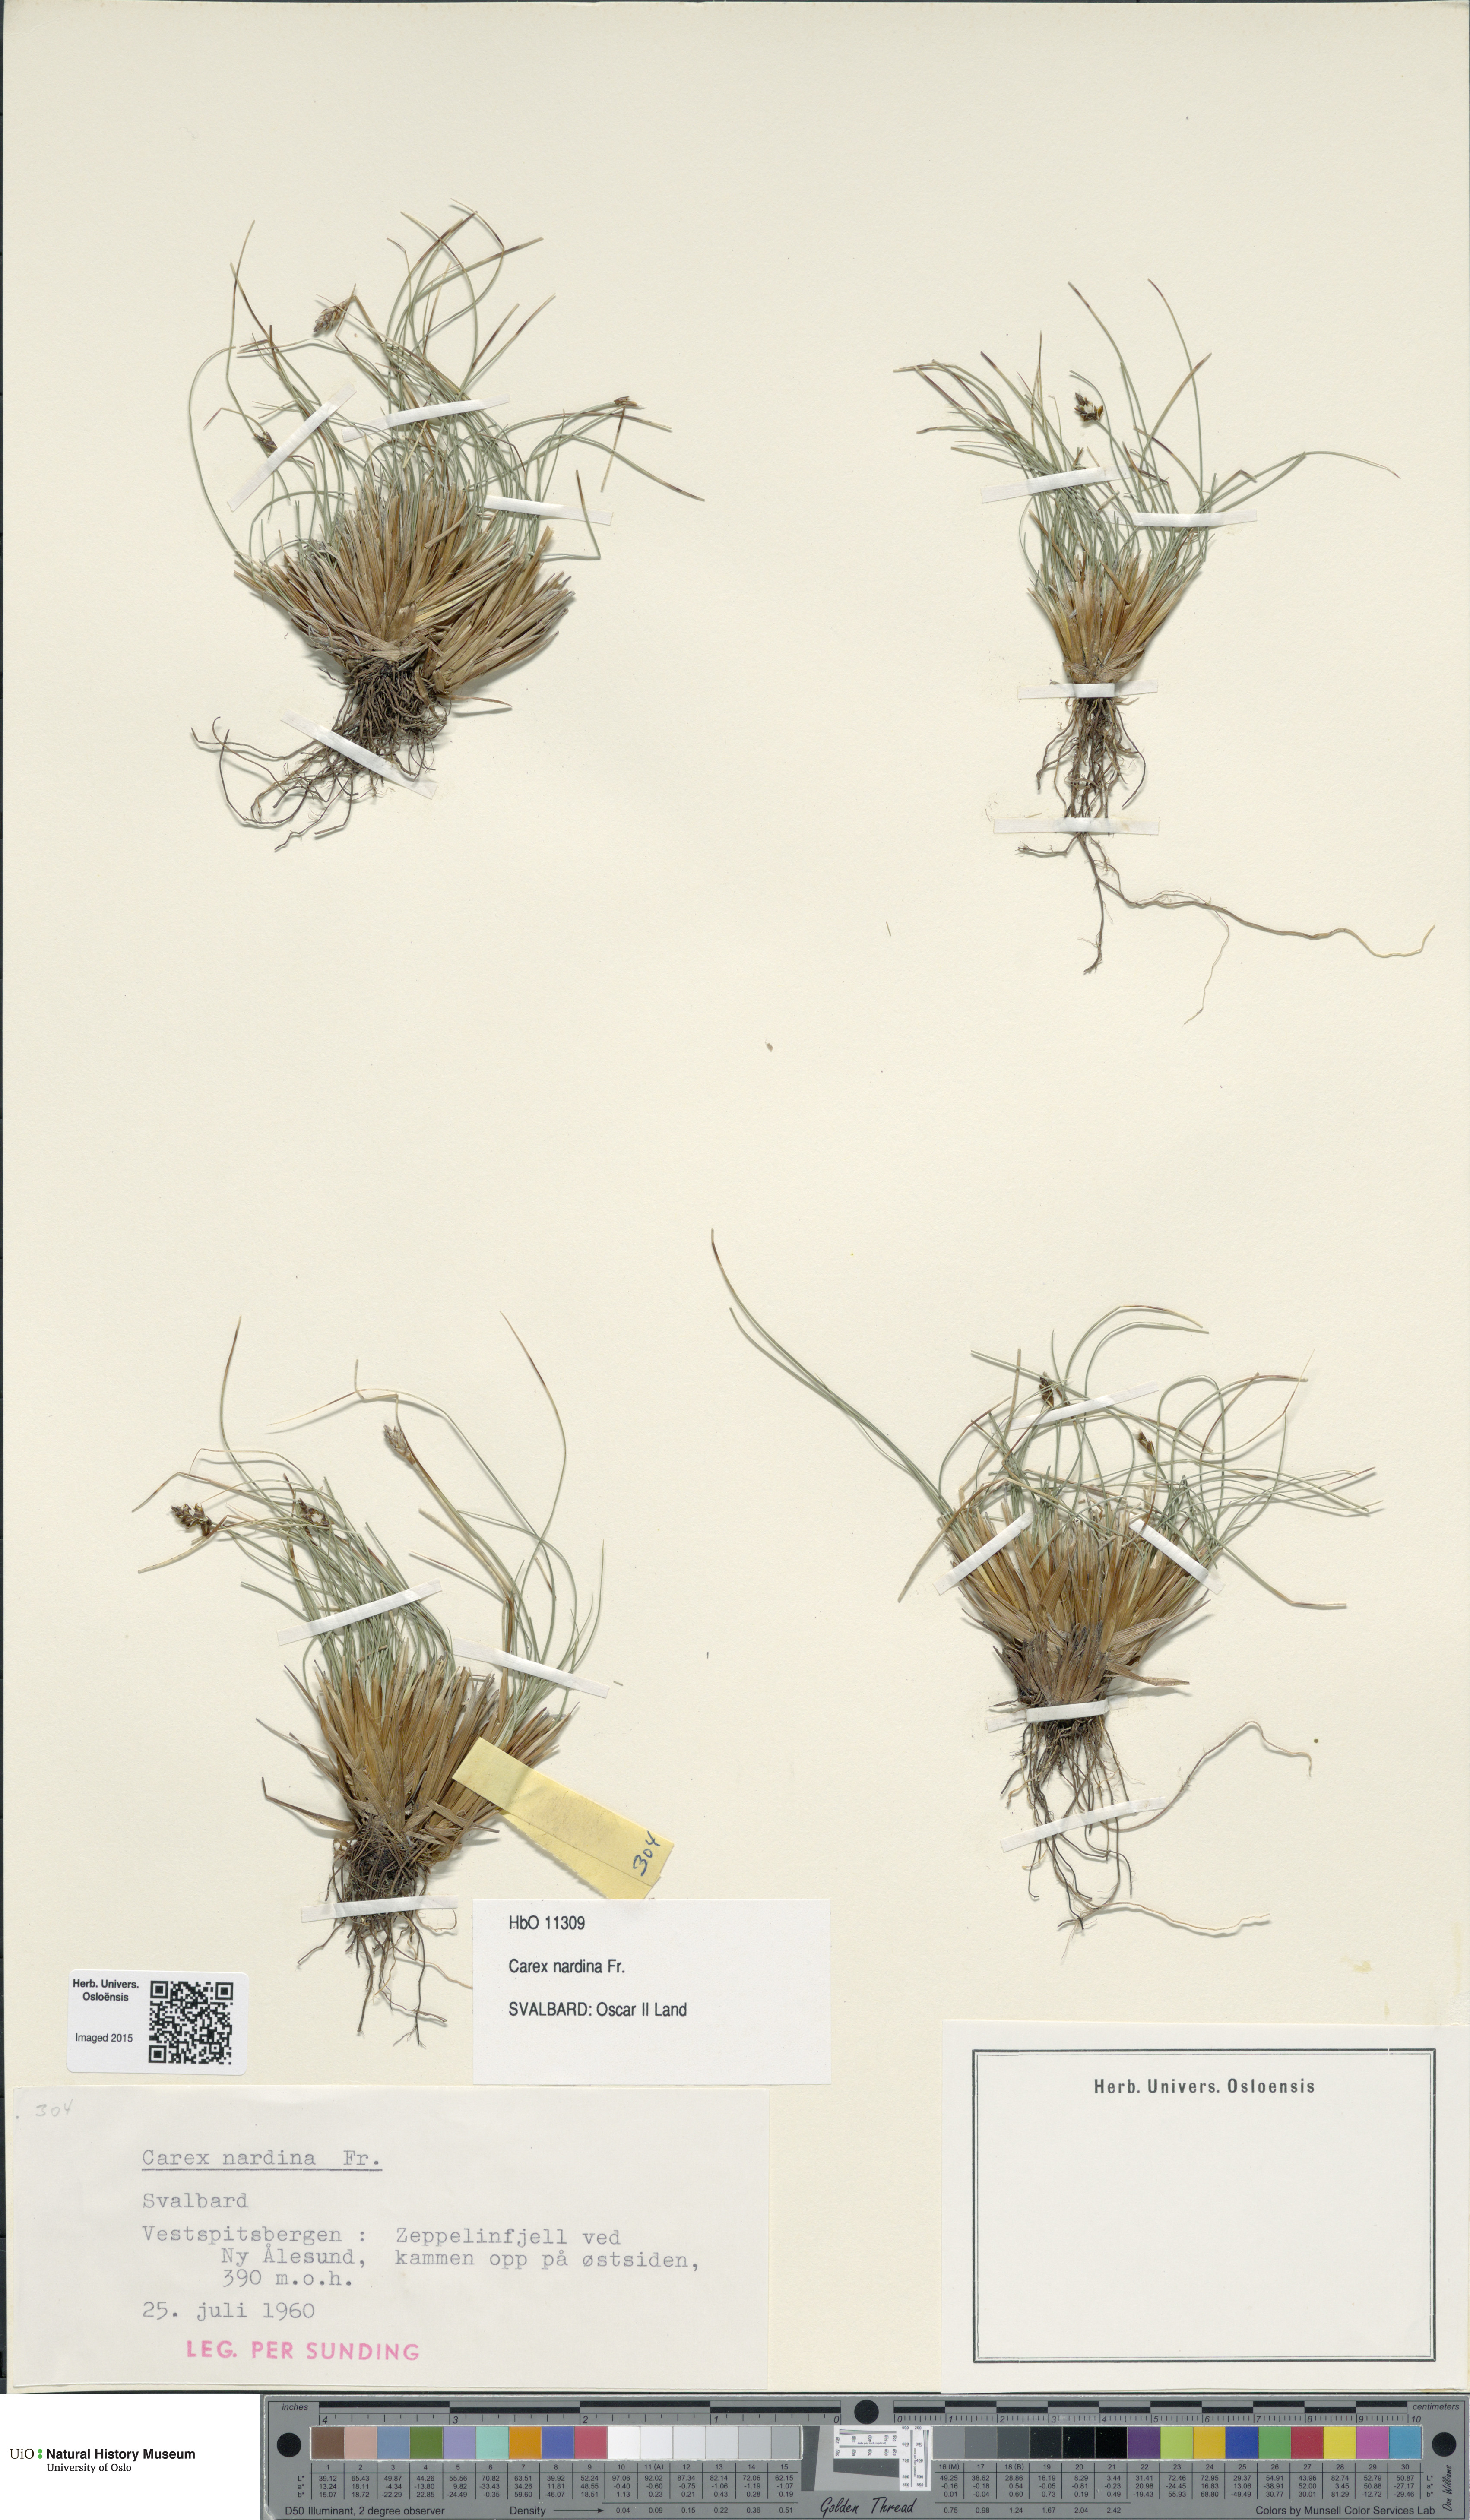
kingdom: Plantae
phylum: Tracheophyta
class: Liliopsida
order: Poales
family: Cyperaceae
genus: Carex
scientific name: Carex nardina
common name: Nard sedge
